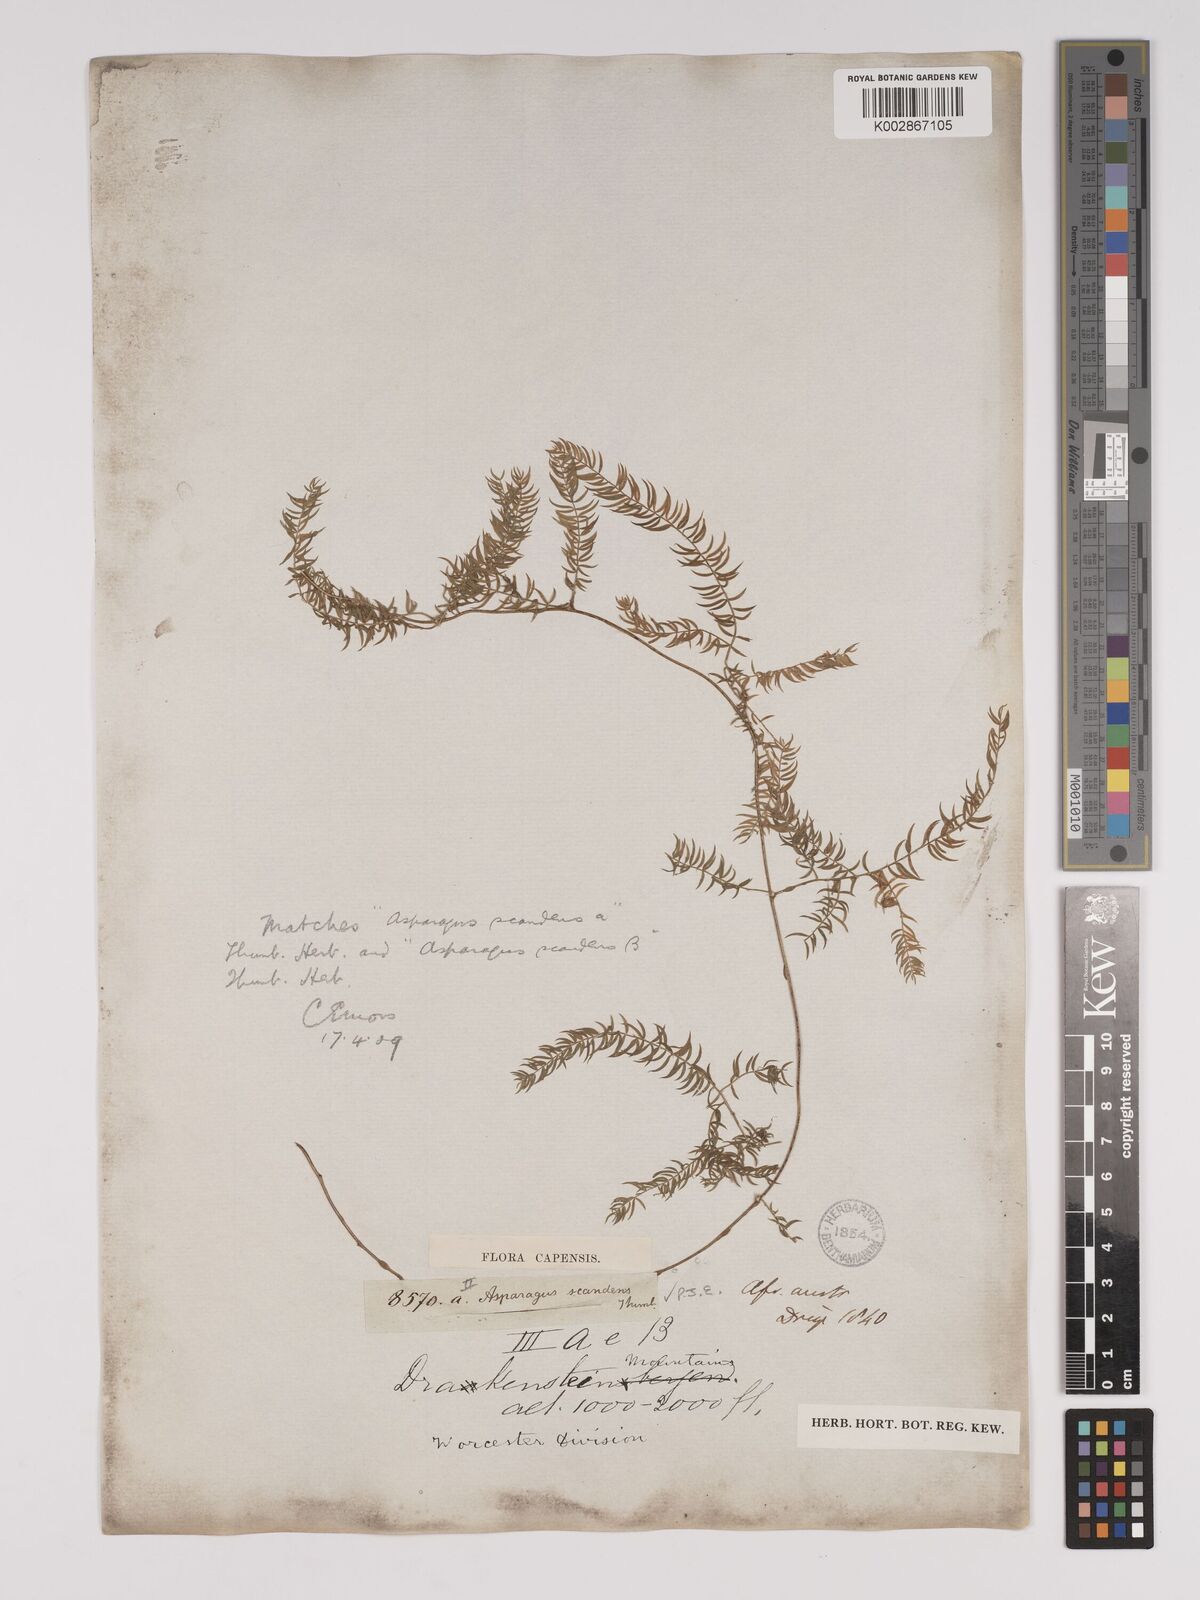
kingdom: Plantae
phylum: Tracheophyta
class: Liliopsida
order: Asparagales
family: Asparagaceae
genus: Asparagus
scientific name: Asparagus scandens
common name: Asparagus-fern
